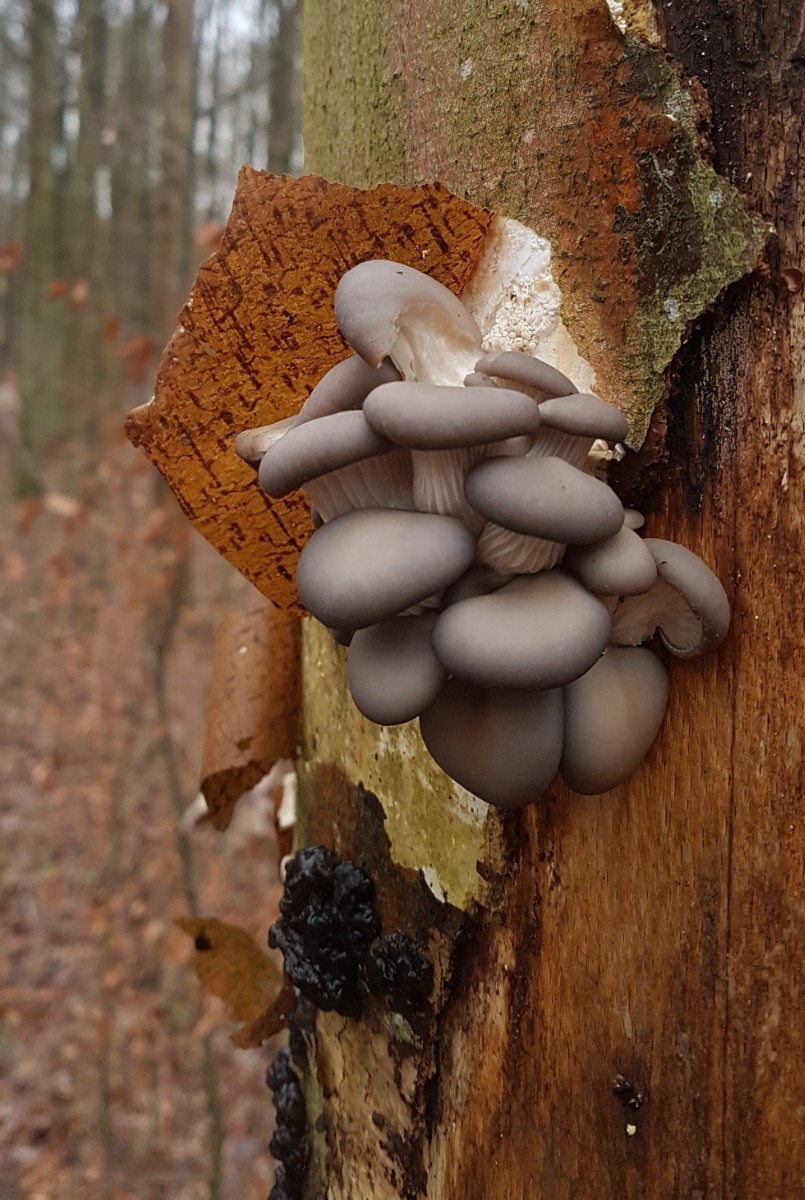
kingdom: Fungi
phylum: Basidiomycota
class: Agaricomycetes
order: Agaricales
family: Pleurotaceae
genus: Pleurotus
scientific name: Pleurotus ostreatus
